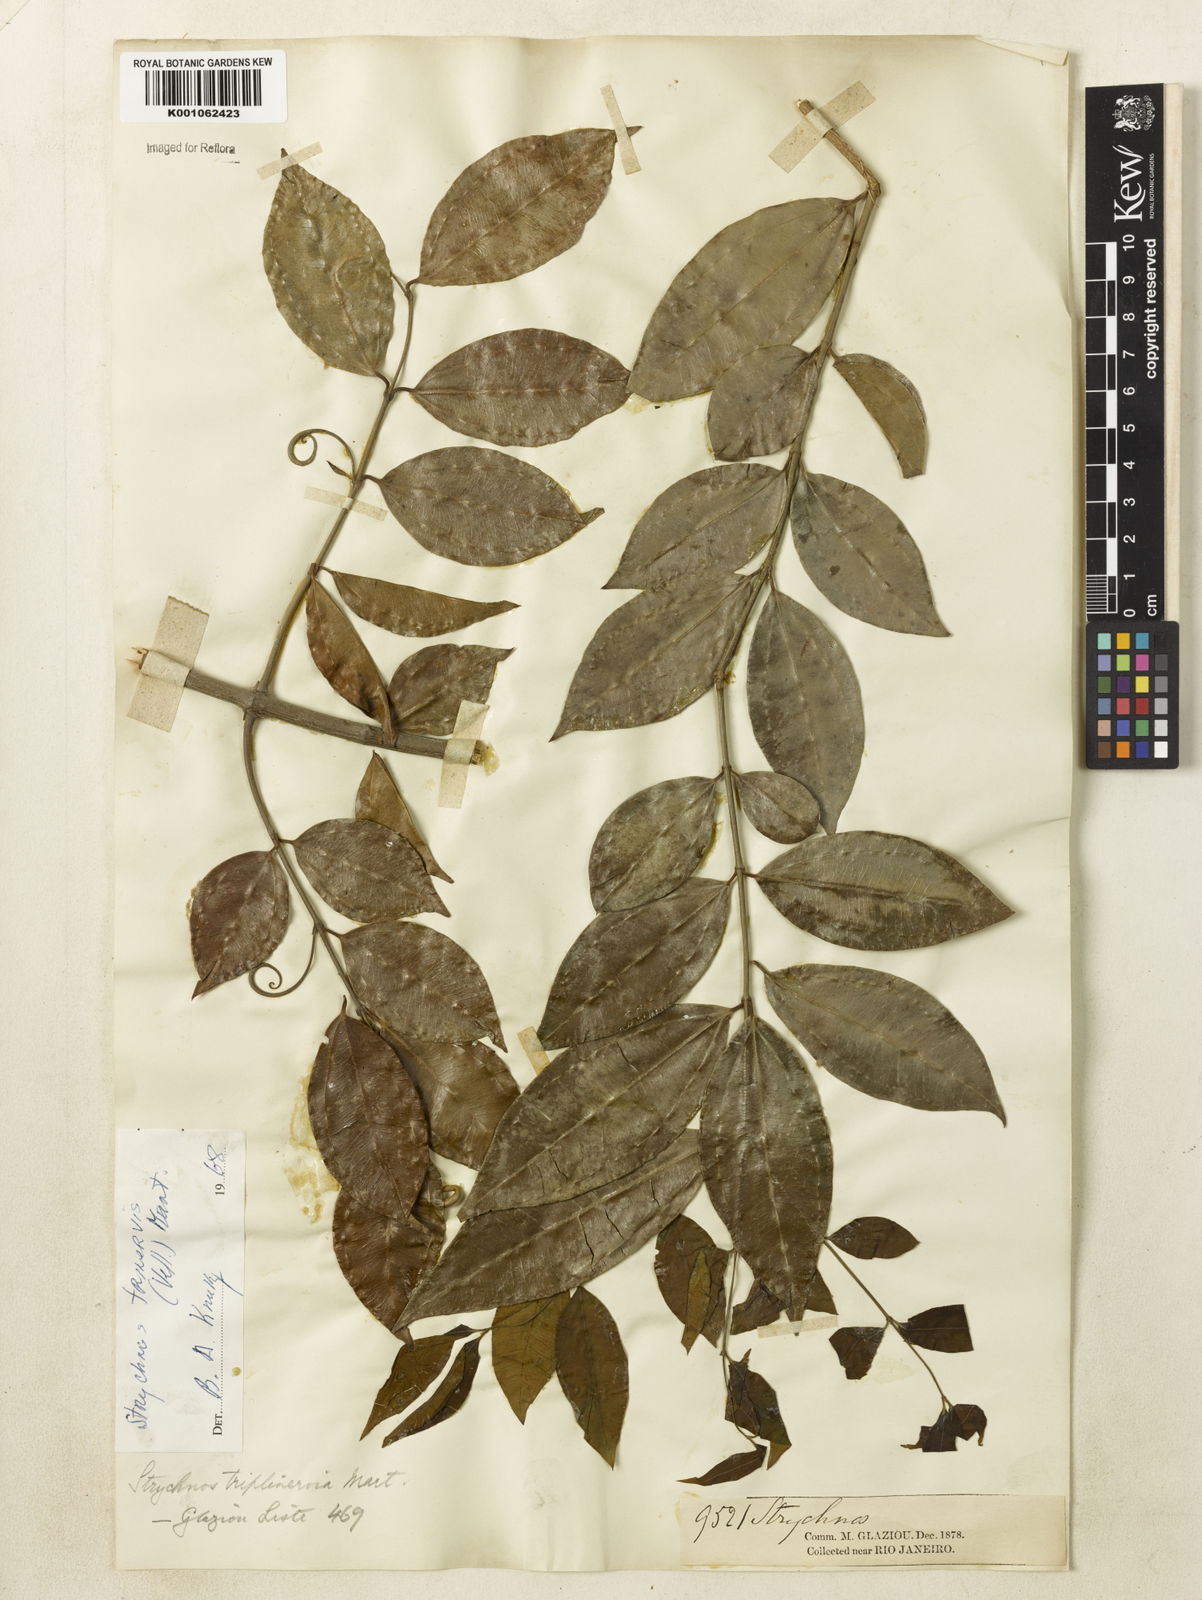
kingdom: Plantae
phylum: Tracheophyta
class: Magnoliopsida
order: Gentianales
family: Loganiaceae
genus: Strychnos
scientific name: Strychnos
